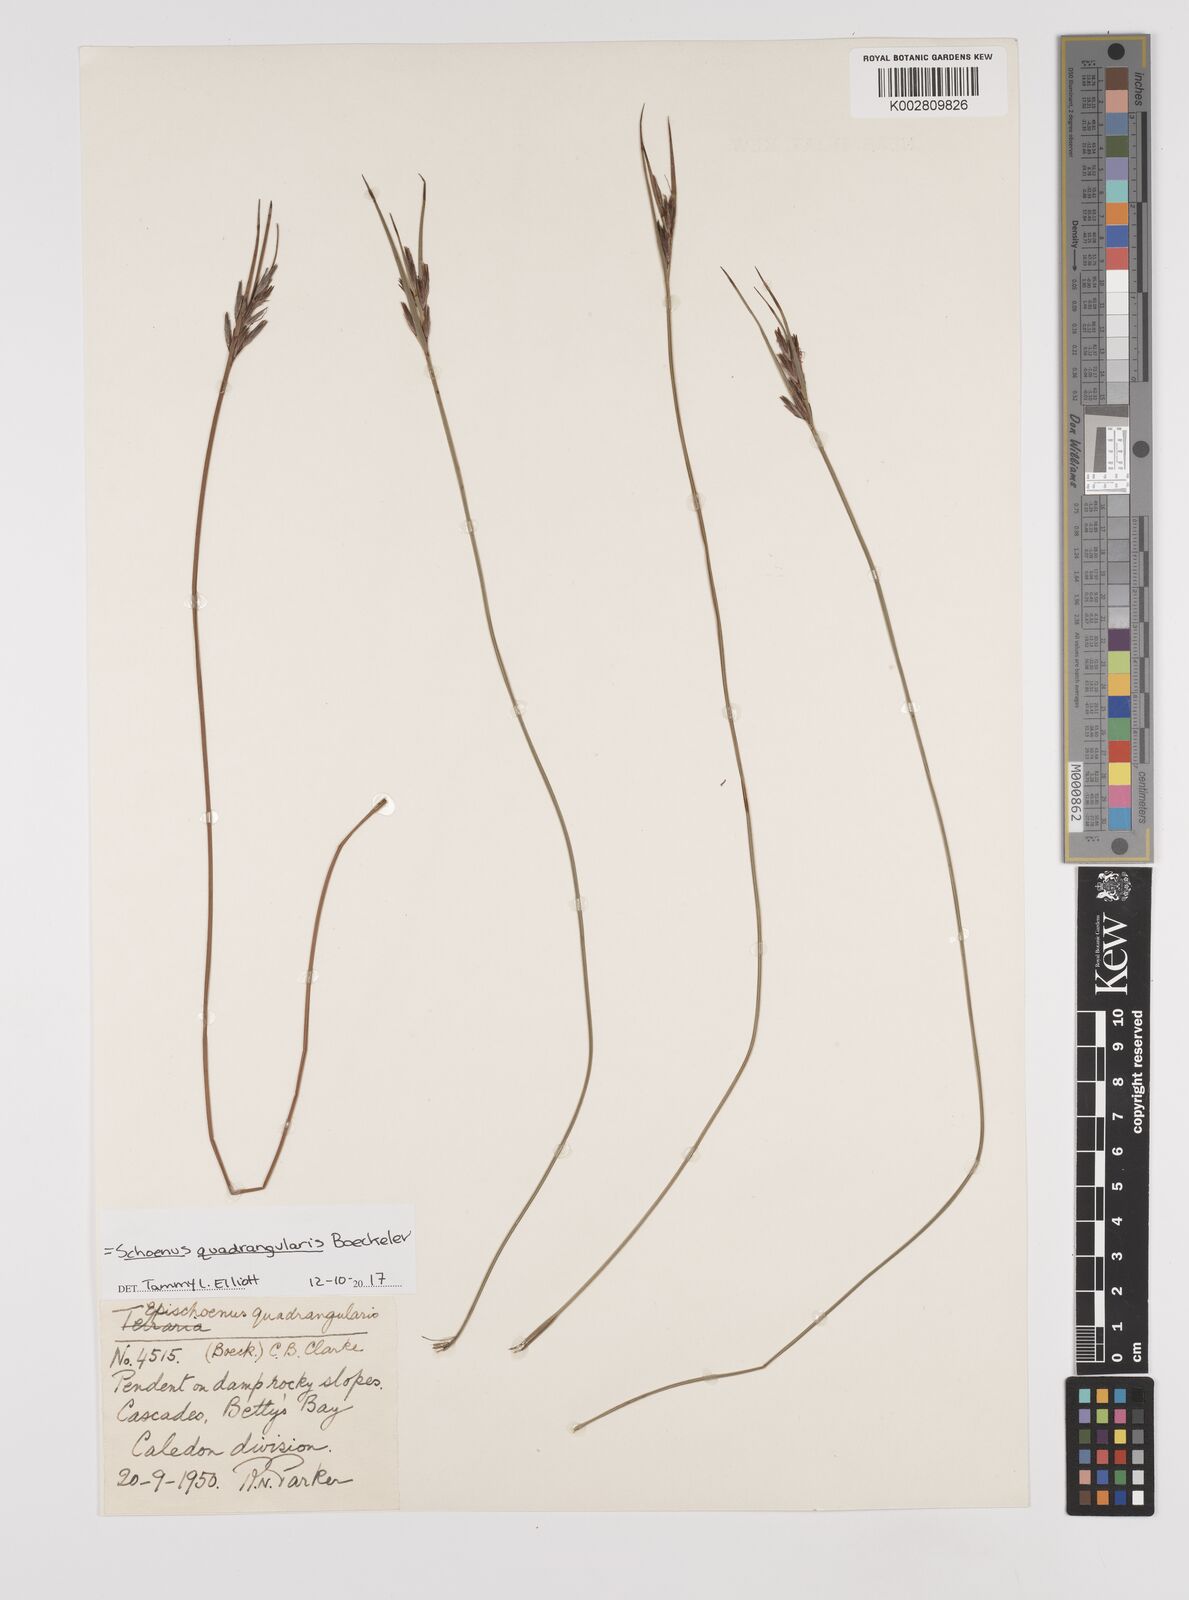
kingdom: Plantae
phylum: Tracheophyta
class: Liliopsida
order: Poales
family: Cyperaceae
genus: Schoenus
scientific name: Schoenus quadrangularis
